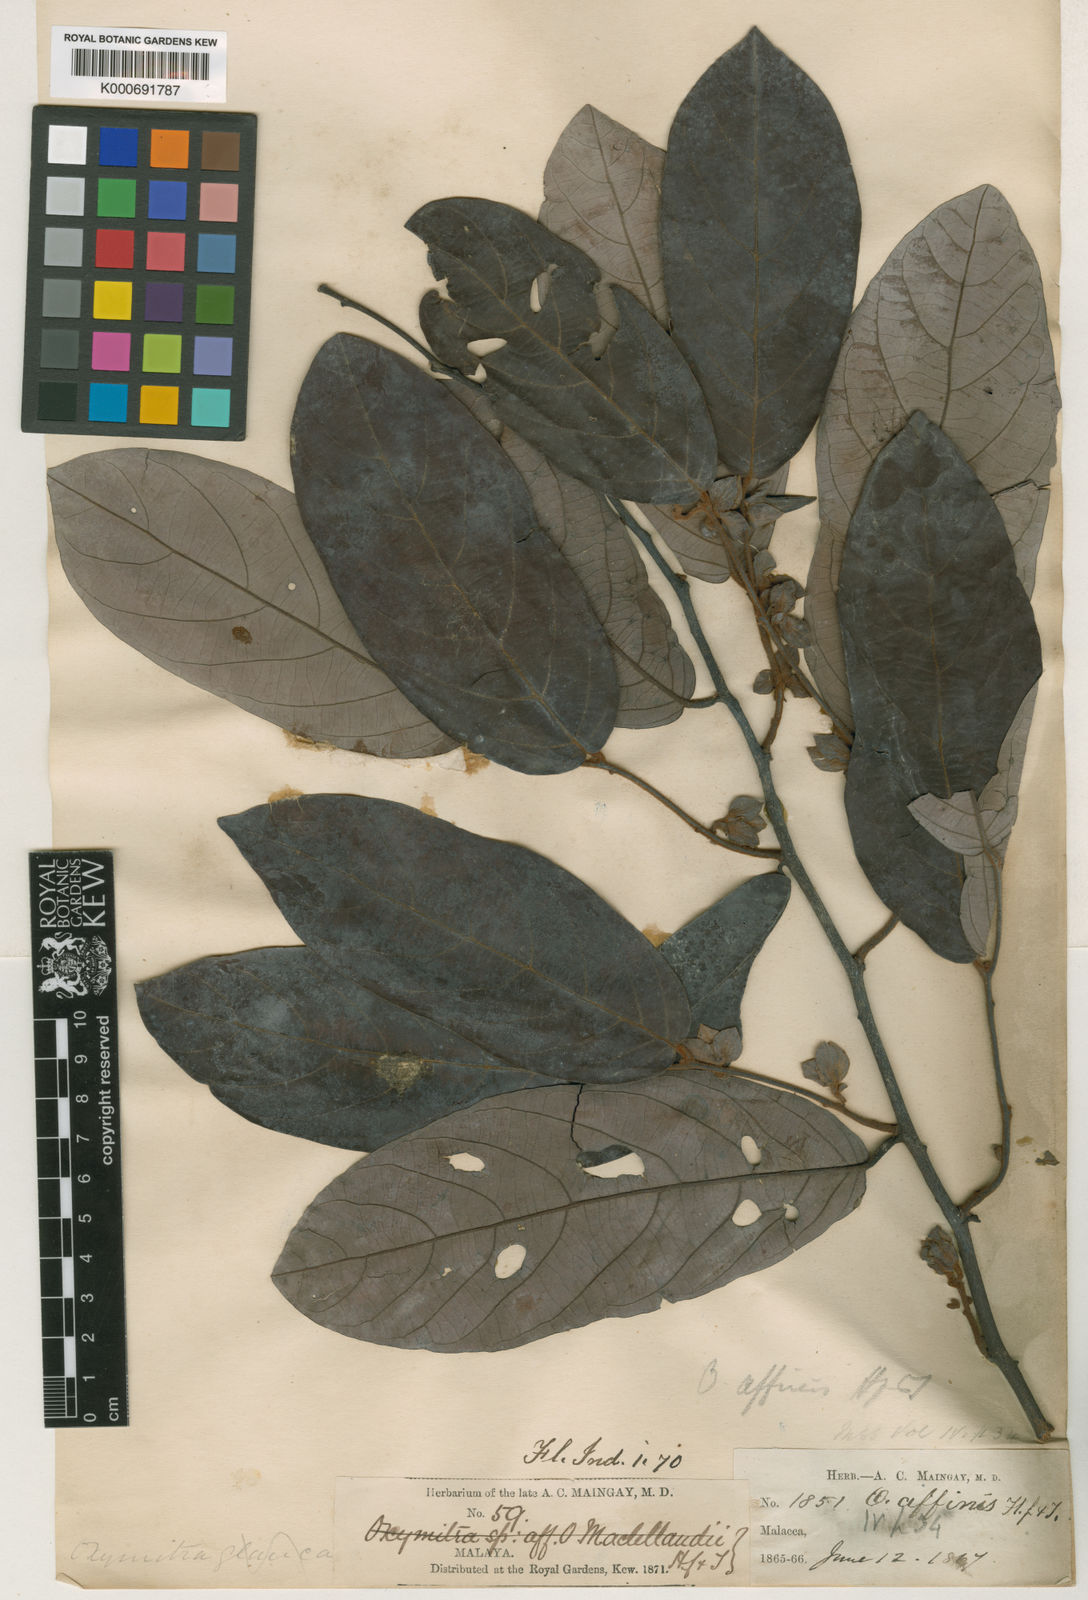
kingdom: Plantae
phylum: Tracheophyta
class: Magnoliopsida
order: Magnoliales
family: Annonaceae
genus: Friesodielsia
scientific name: Friesodielsia affinis
